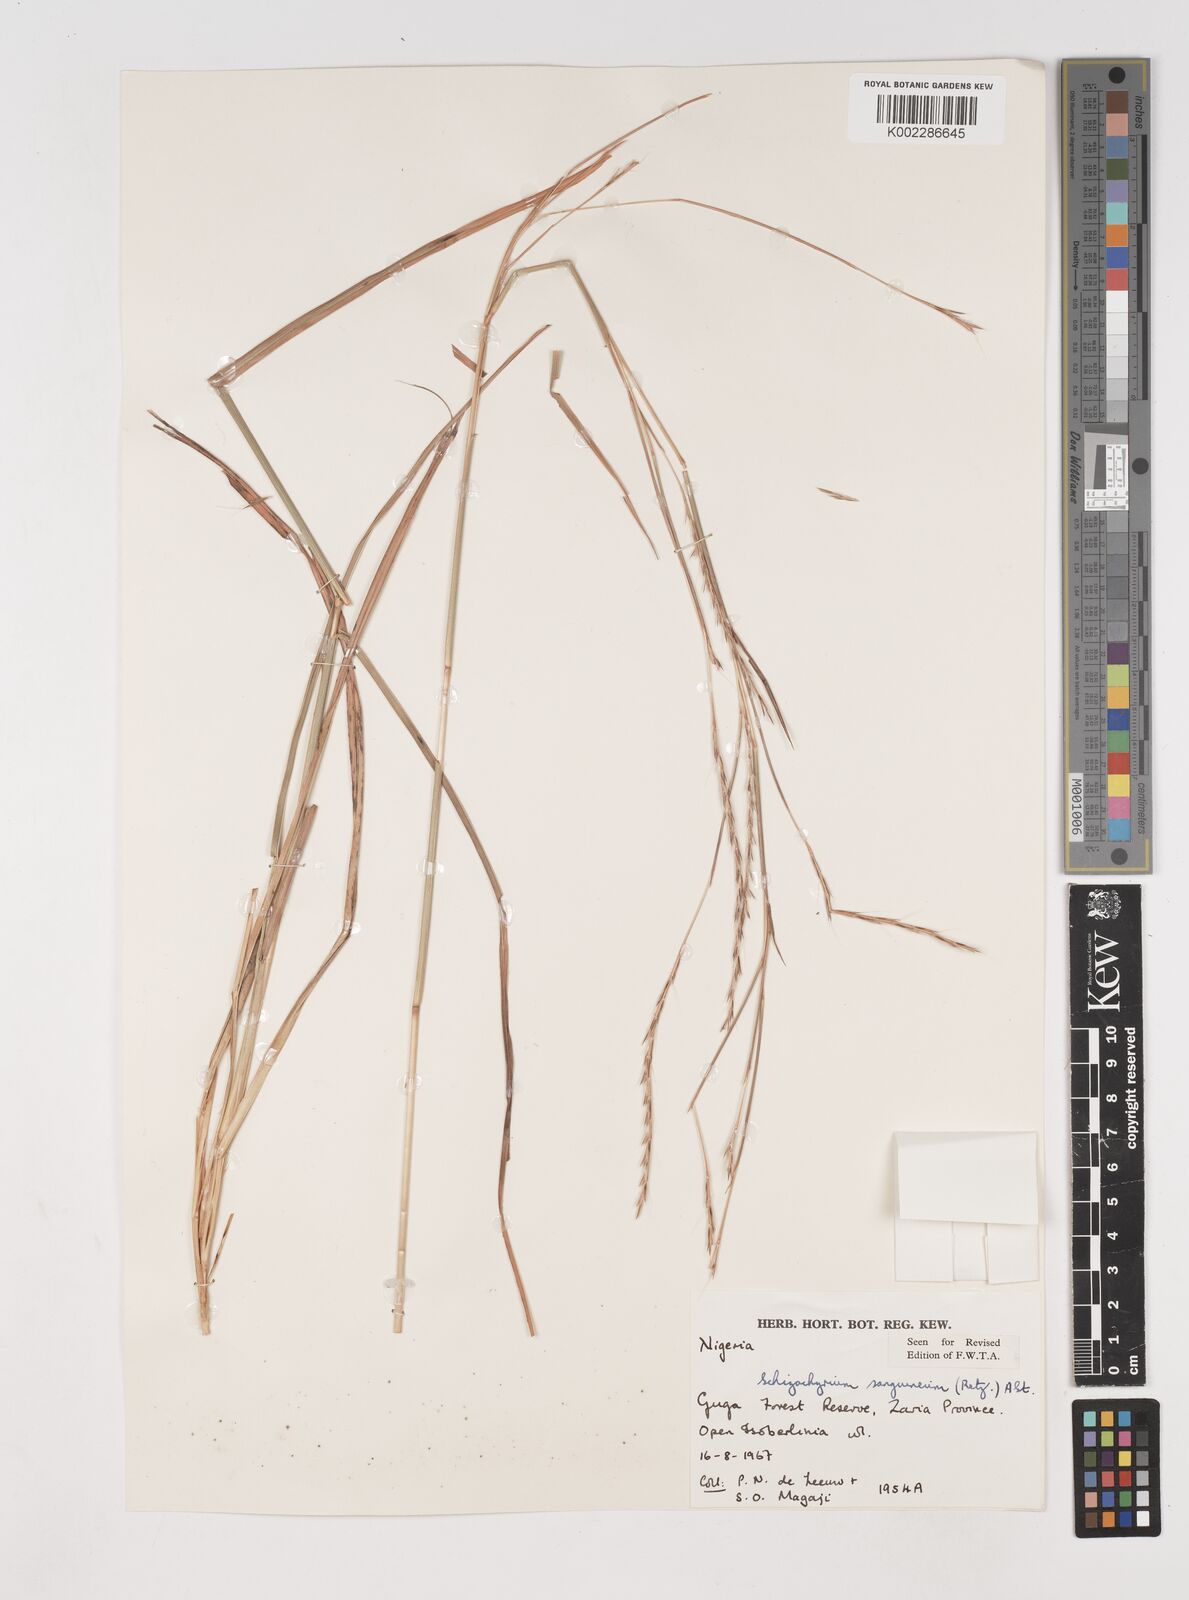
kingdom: Plantae
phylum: Tracheophyta
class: Liliopsida
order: Poales
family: Poaceae
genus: Schizachyrium
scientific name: Schizachyrium sanguineum
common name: Crimson bluestem
